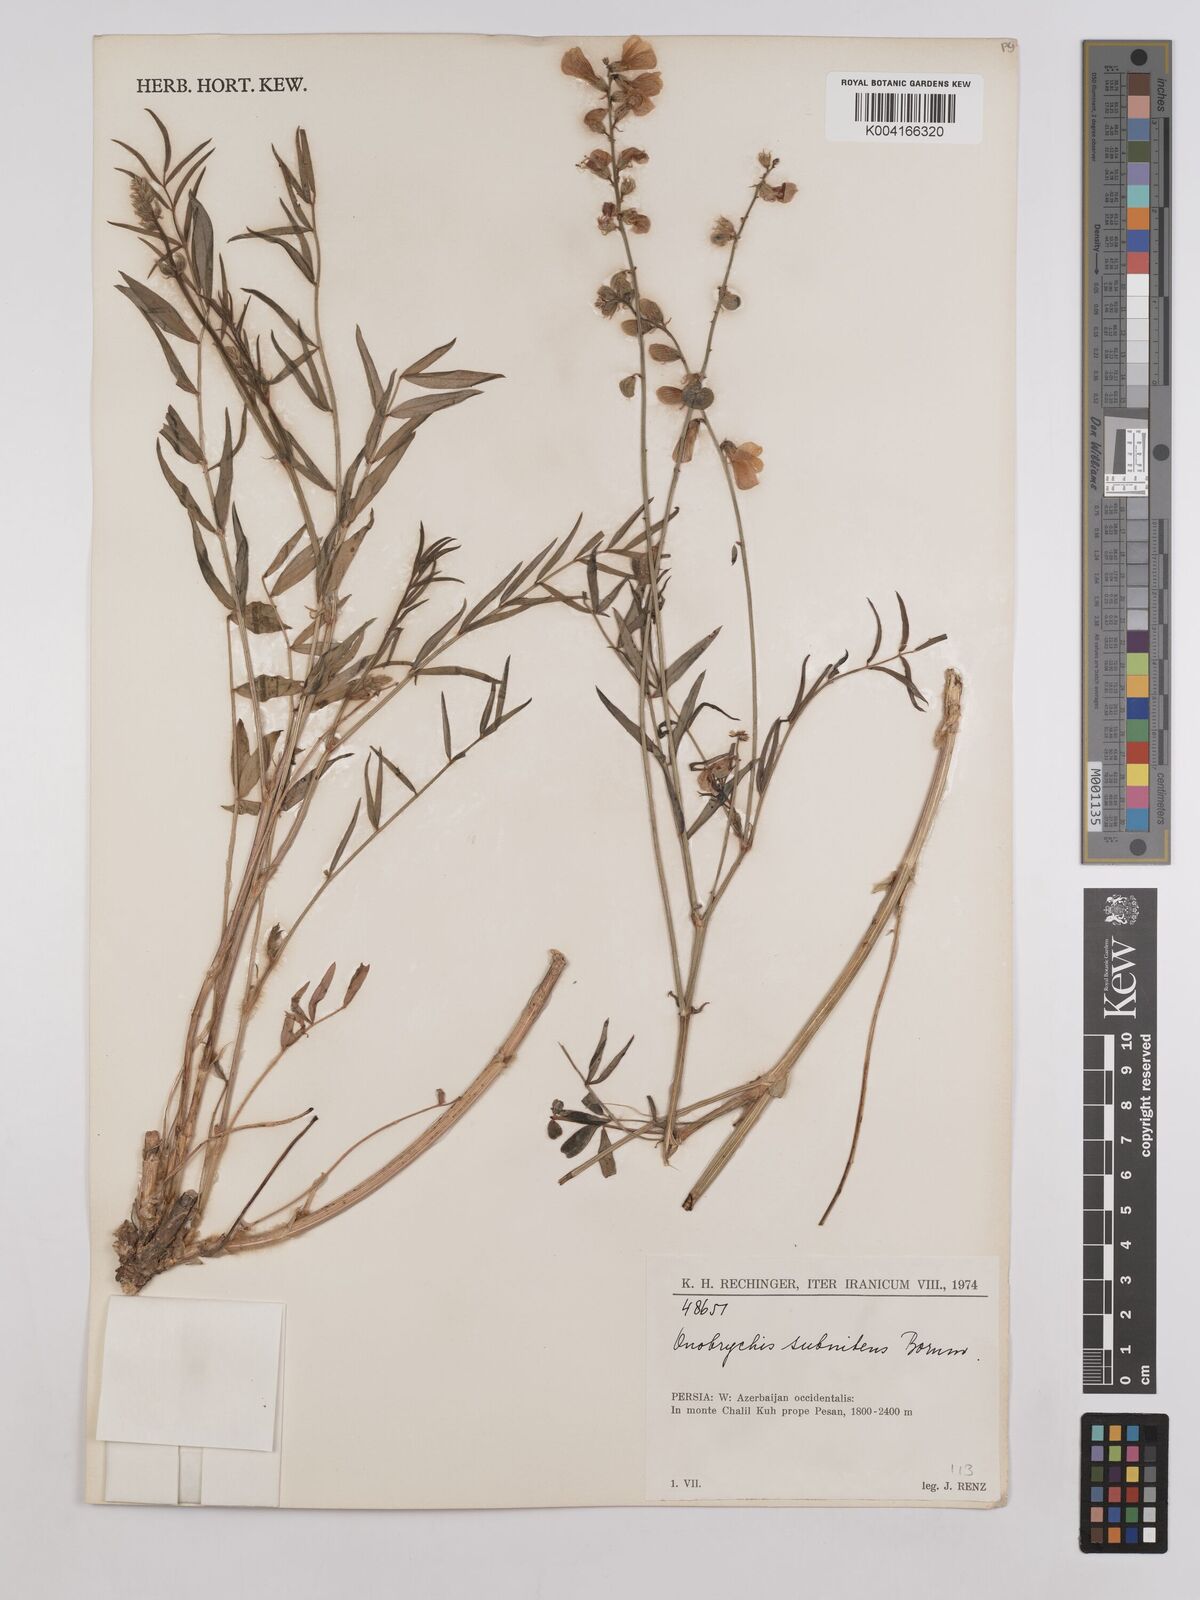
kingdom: Plantae
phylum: Tracheophyta
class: Magnoliopsida
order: Fabales
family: Fabaceae
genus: Onobrychis
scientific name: Onobrychis subnitens
